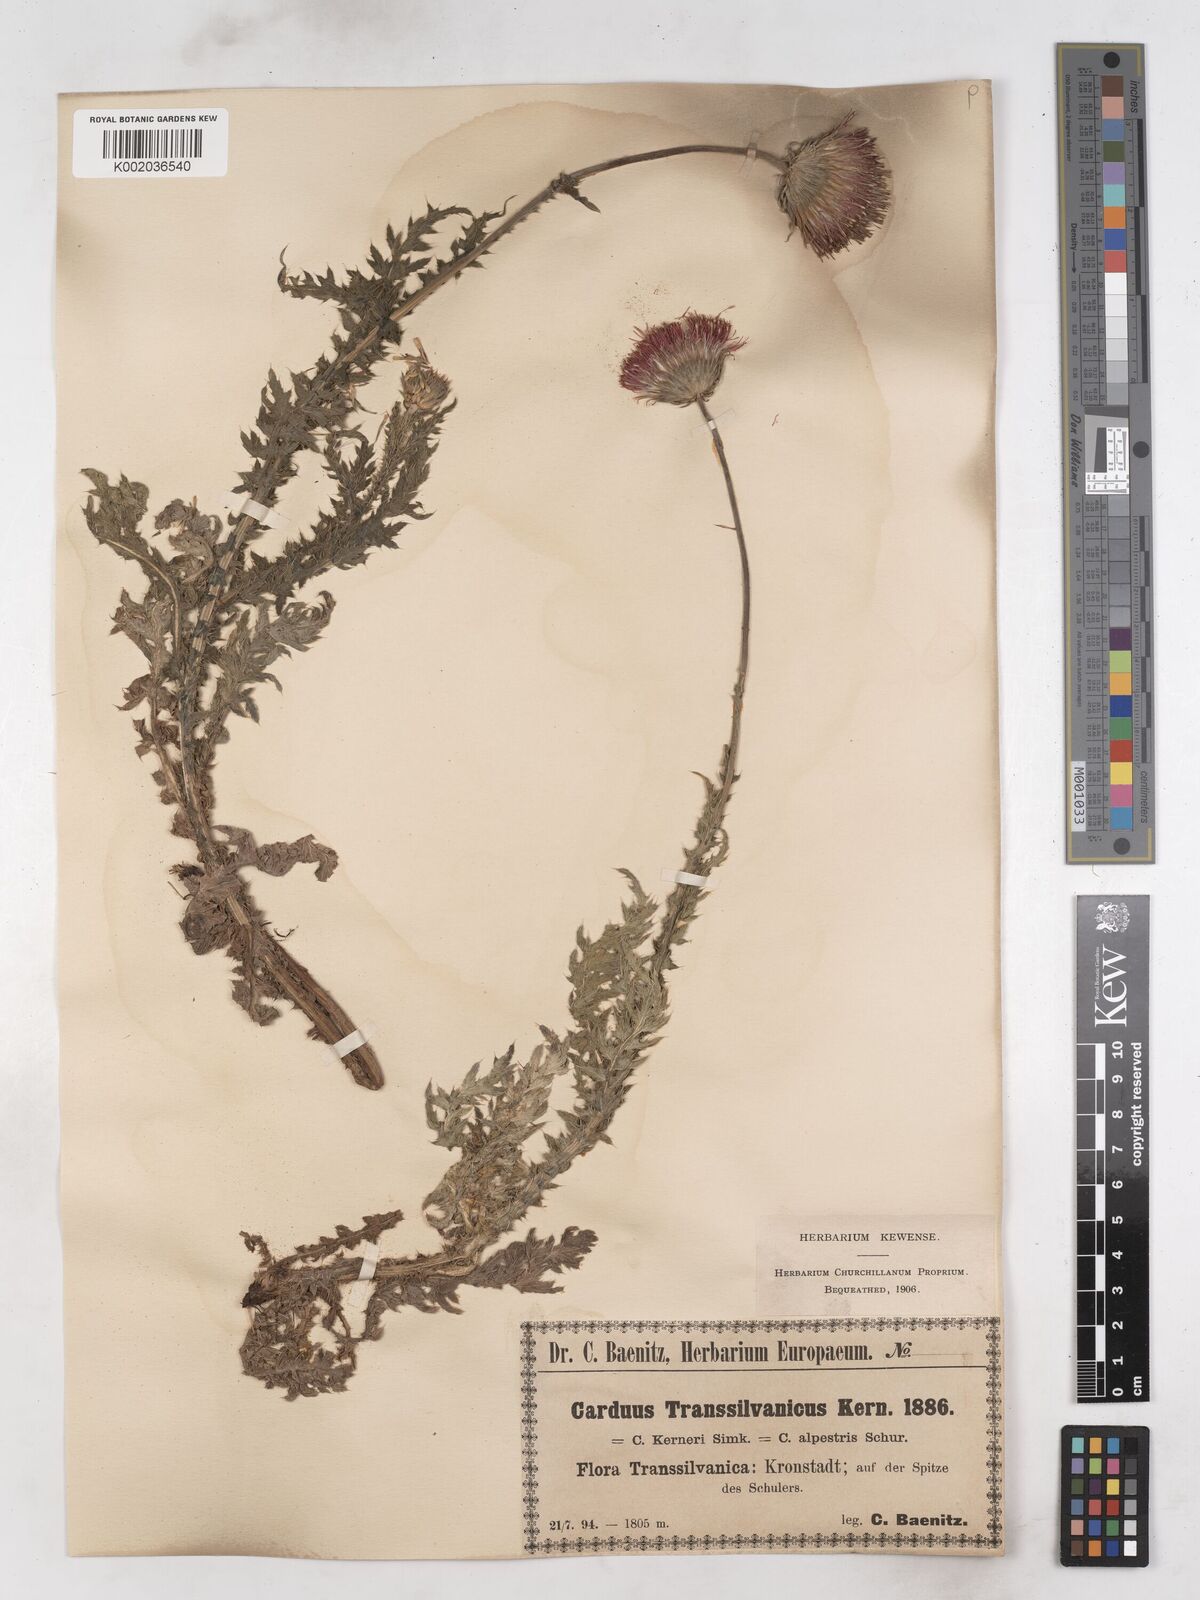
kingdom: Plantae
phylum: Tracheophyta
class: Magnoliopsida
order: Asterales
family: Asteraceae
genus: Carduus
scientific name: Carduus kerneri
